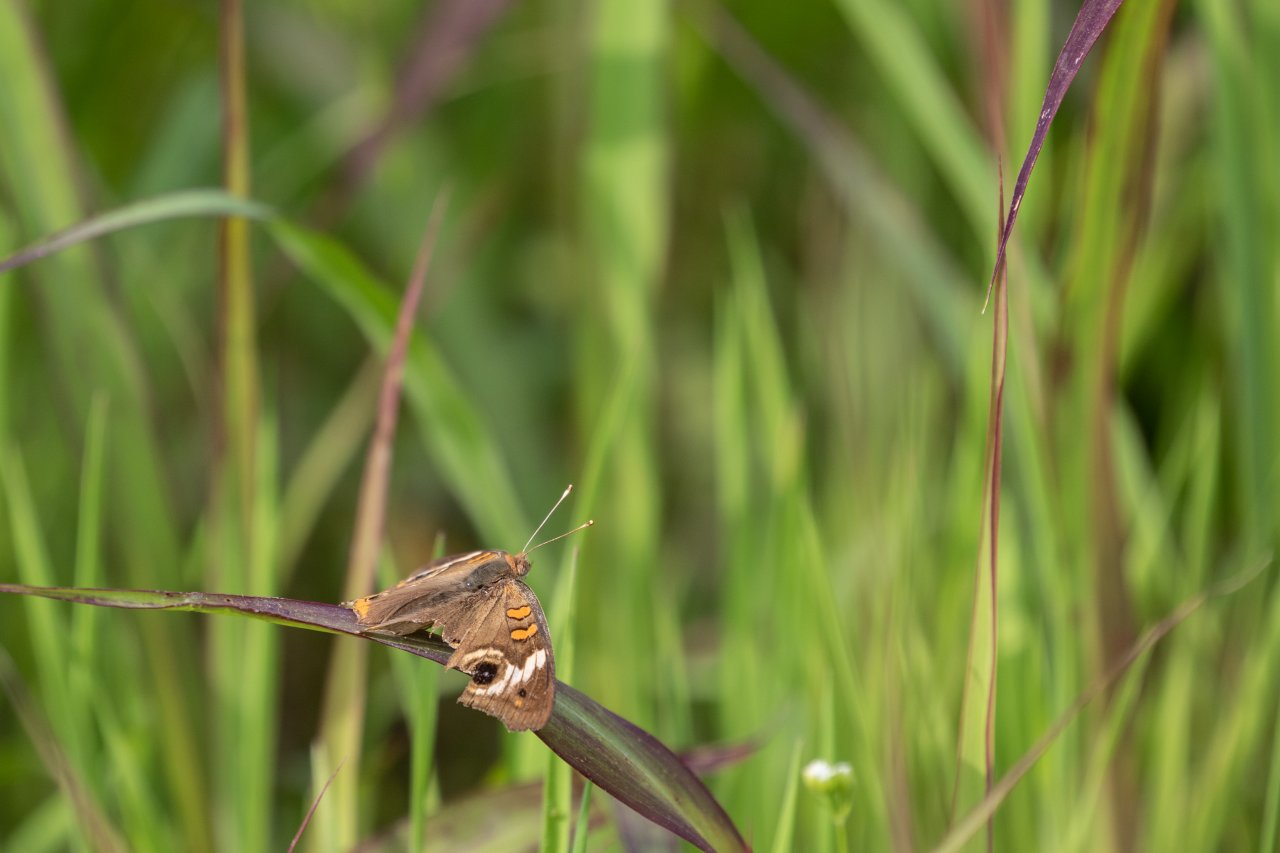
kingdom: Animalia
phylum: Arthropoda
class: Insecta
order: Lepidoptera
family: Nymphalidae
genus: Junonia
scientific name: Junonia coenia
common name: Common Buckeye
